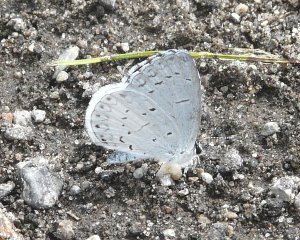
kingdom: Animalia
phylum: Arthropoda
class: Insecta
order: Lepidoptera
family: Lycaenidae
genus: Cyaniris
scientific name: Cyaniris neglecta
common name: Summer Azure
